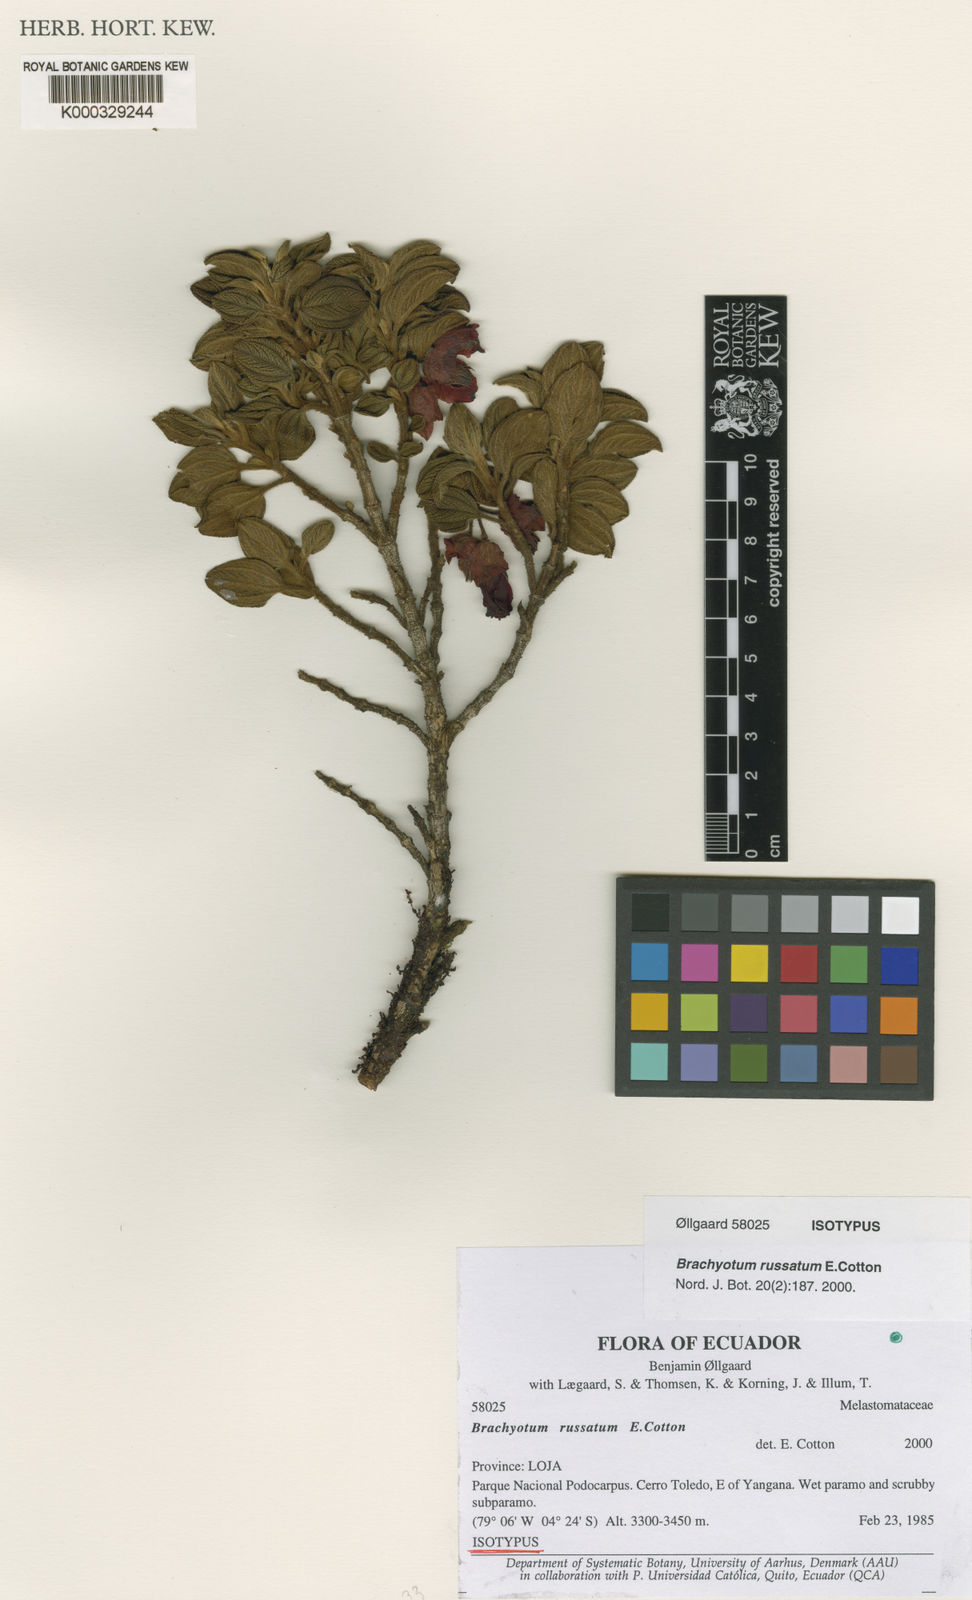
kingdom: Plantae
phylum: Tracheophyta
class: Magnoliopsida
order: Myrtales
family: Melastomataceae
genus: Brachyotum
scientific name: Brachyotum russatum
